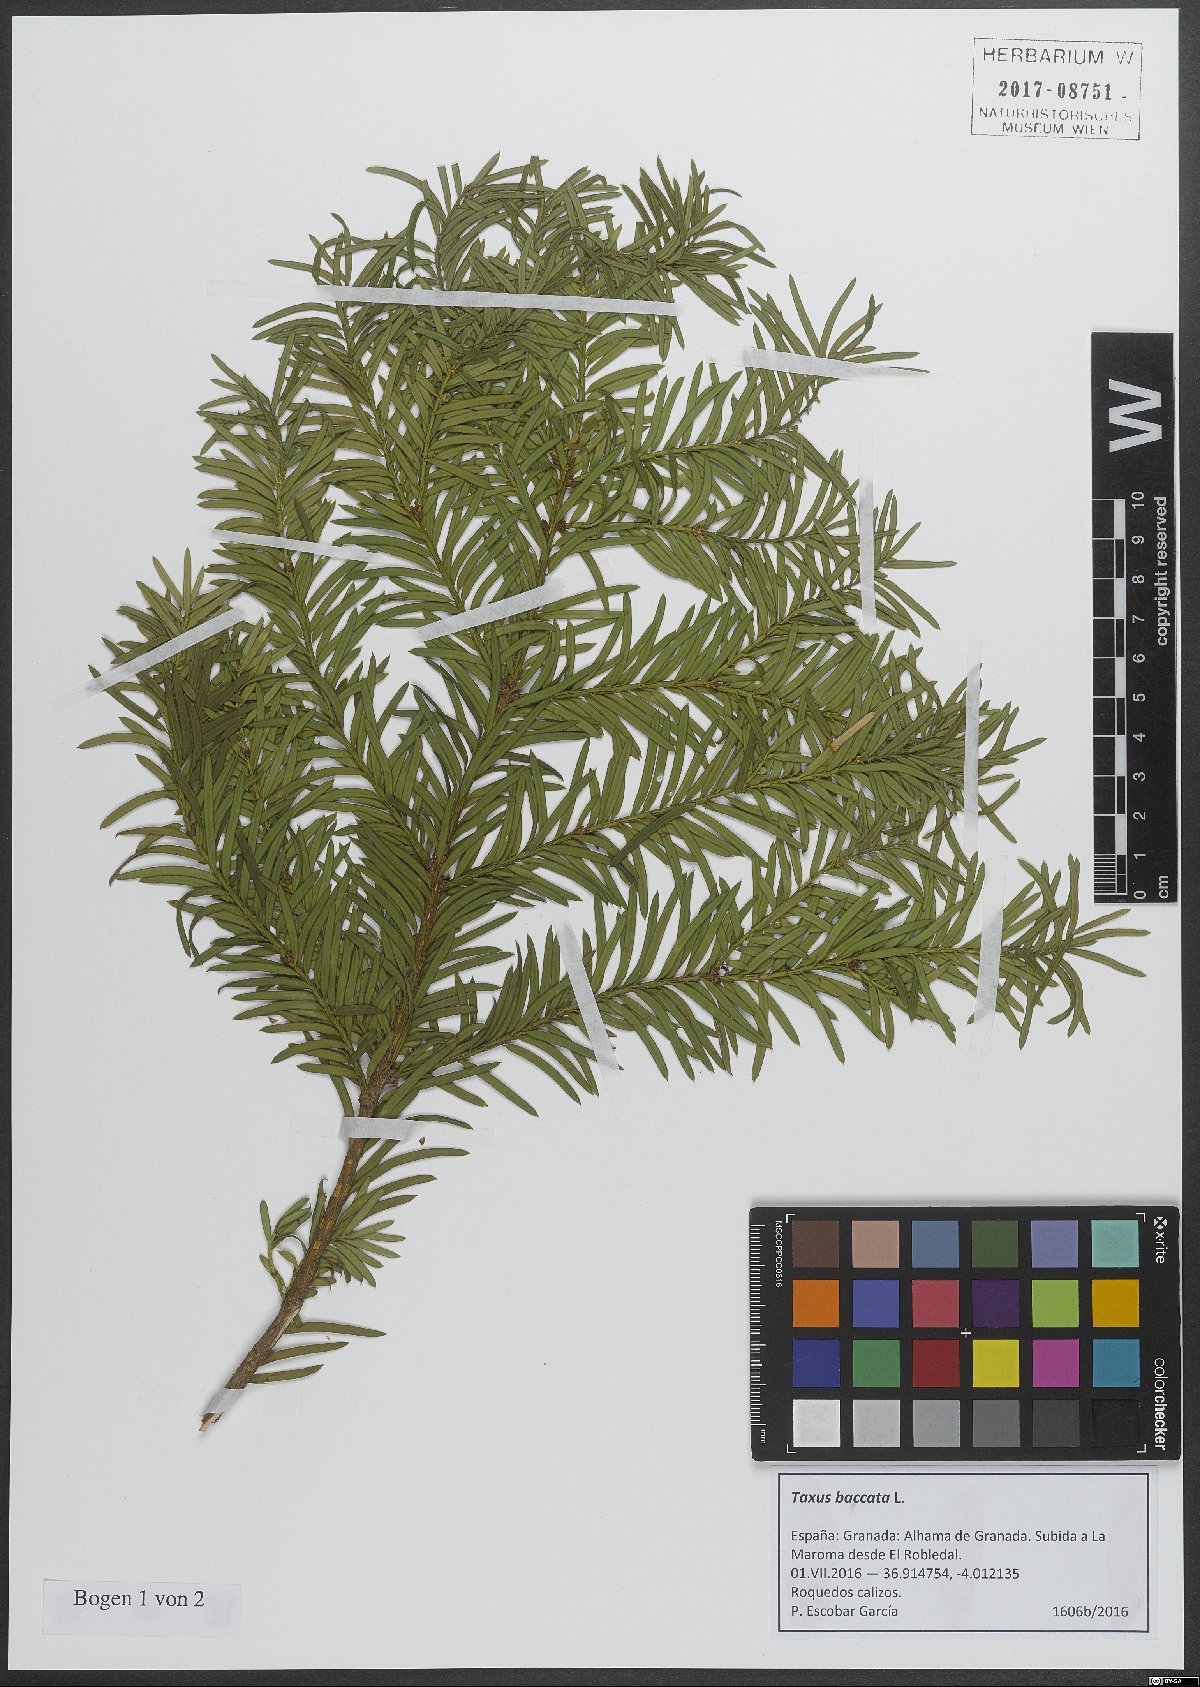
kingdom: Plantae
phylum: Tracheophyta
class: Pinopsida
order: Pinales
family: Taxaceae
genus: Taxus
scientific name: Taxus baccata
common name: Yew
